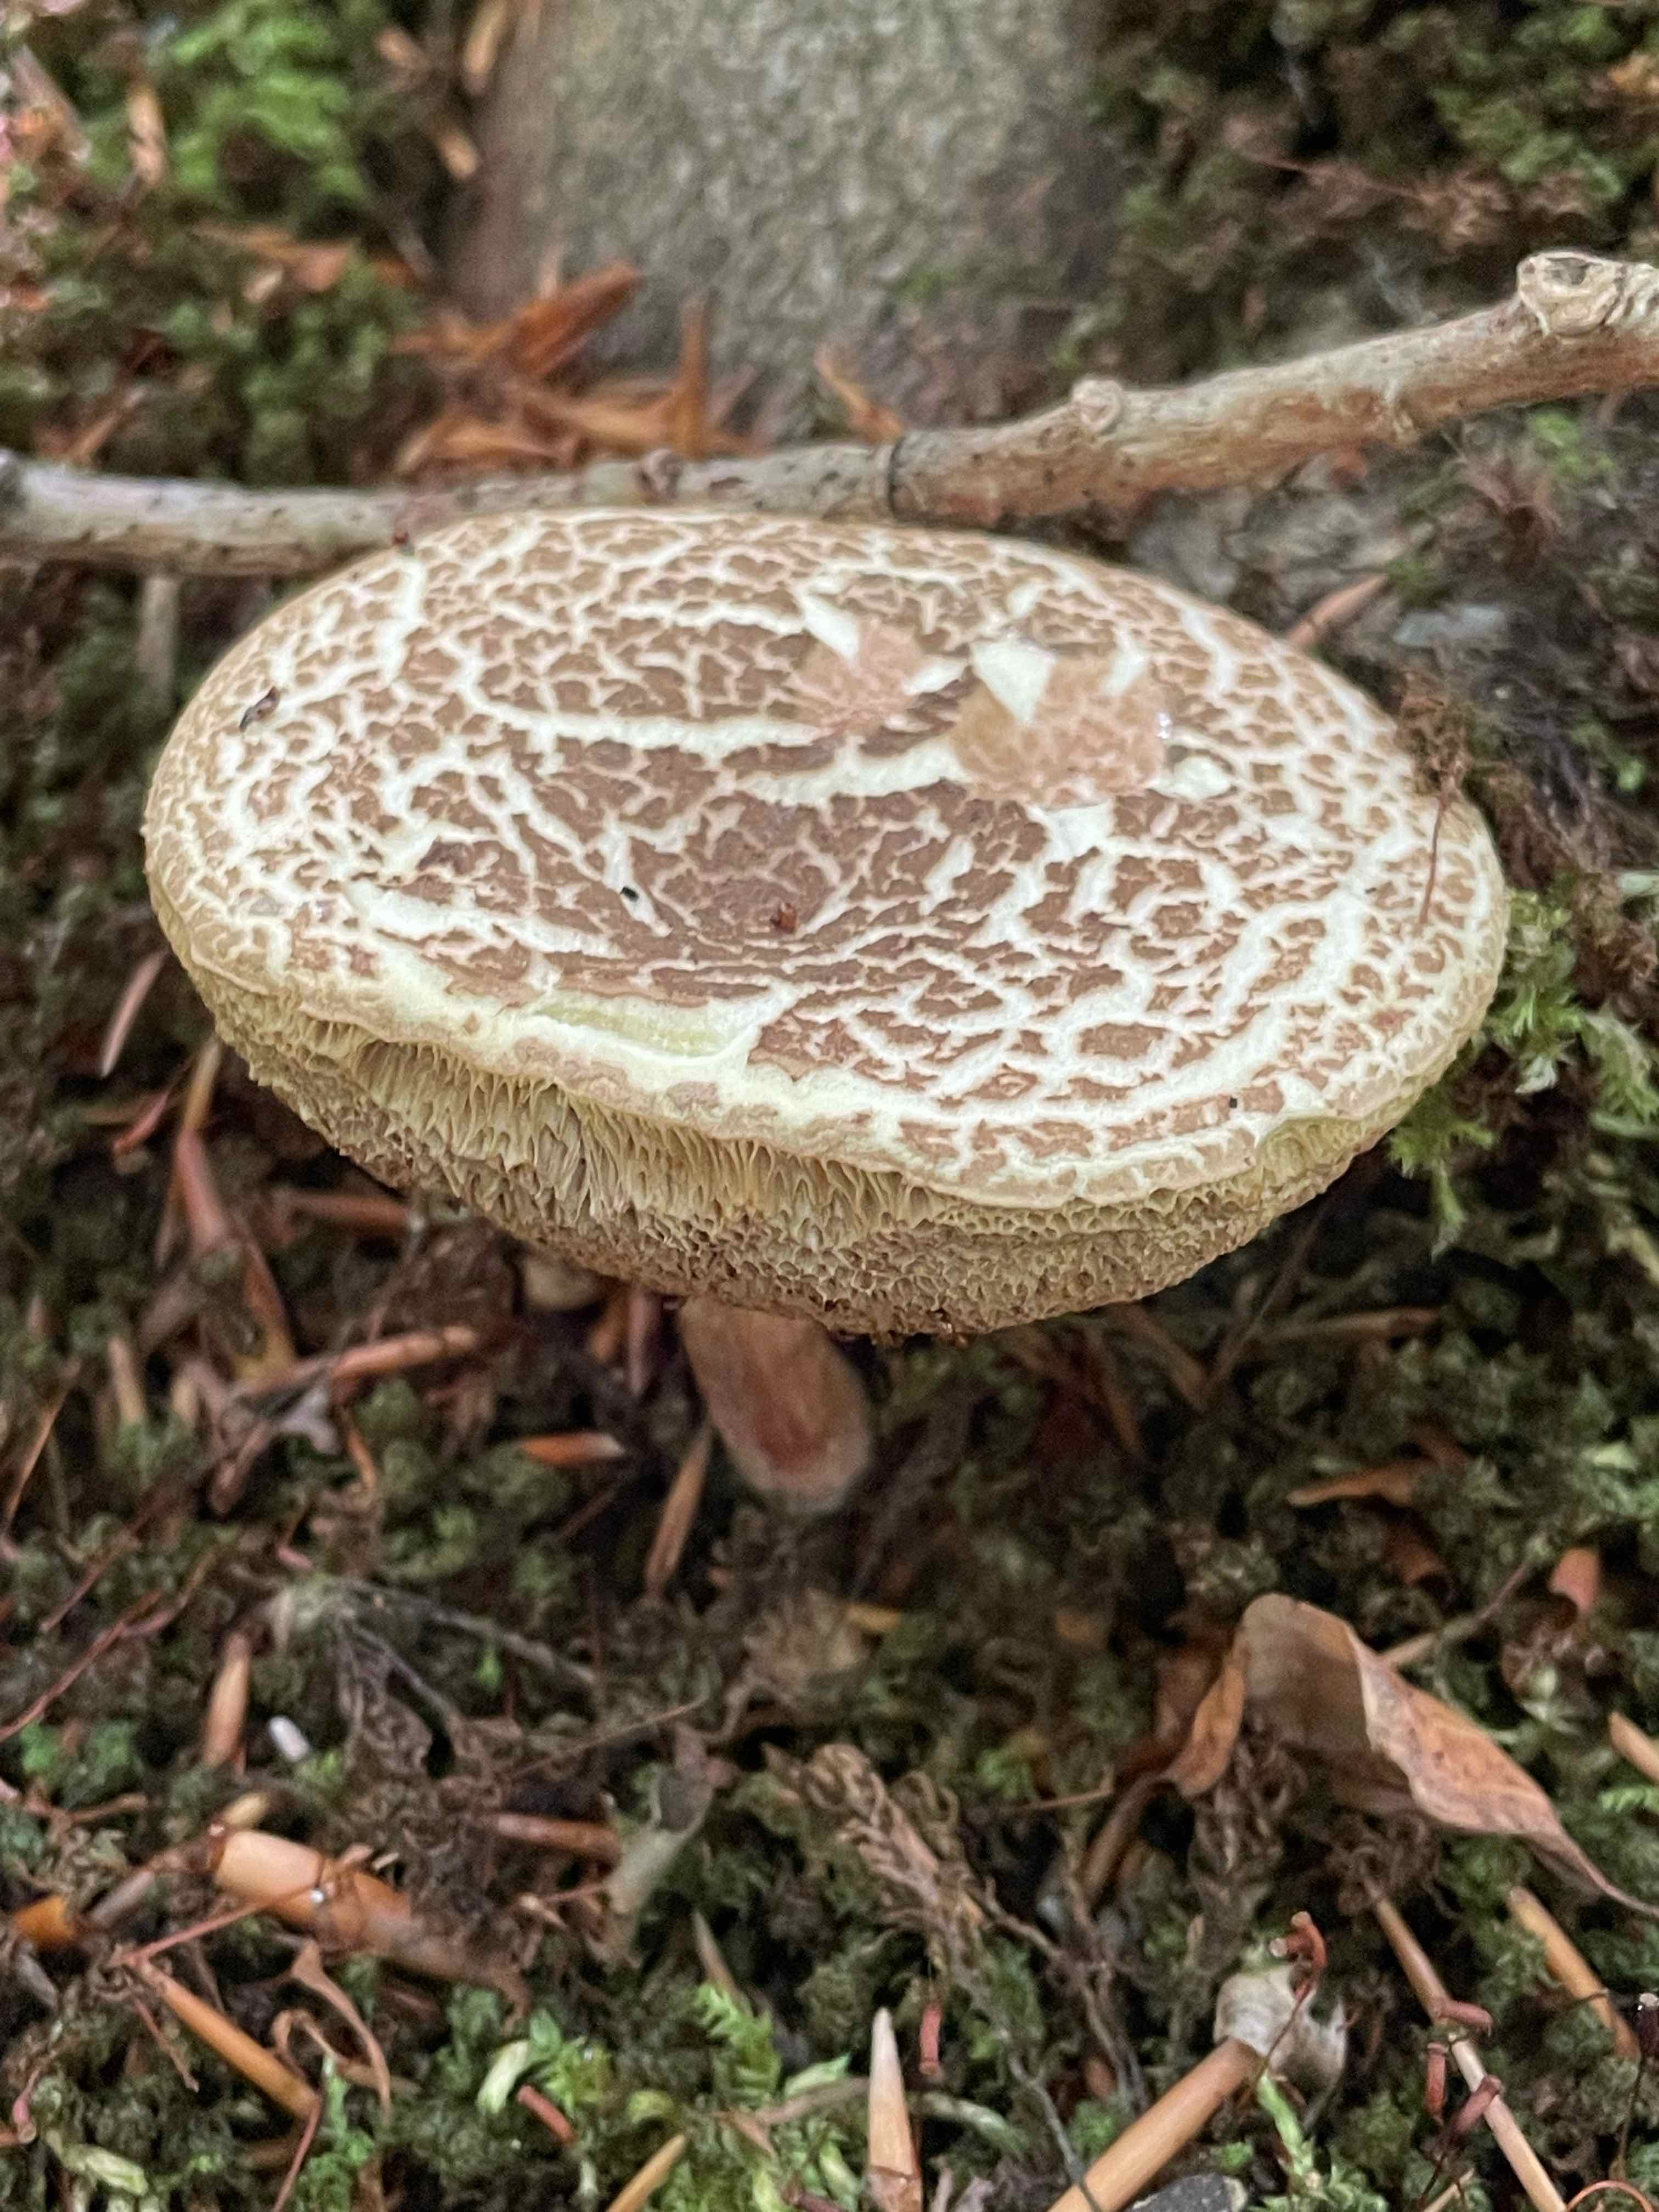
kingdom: Fungi
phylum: Basidiomycota
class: Agaricomycetes
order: Boletales
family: Boletaceae
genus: Xerocomellus
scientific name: Xerocomellus chrysenteron
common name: rødsprukken rørhat
